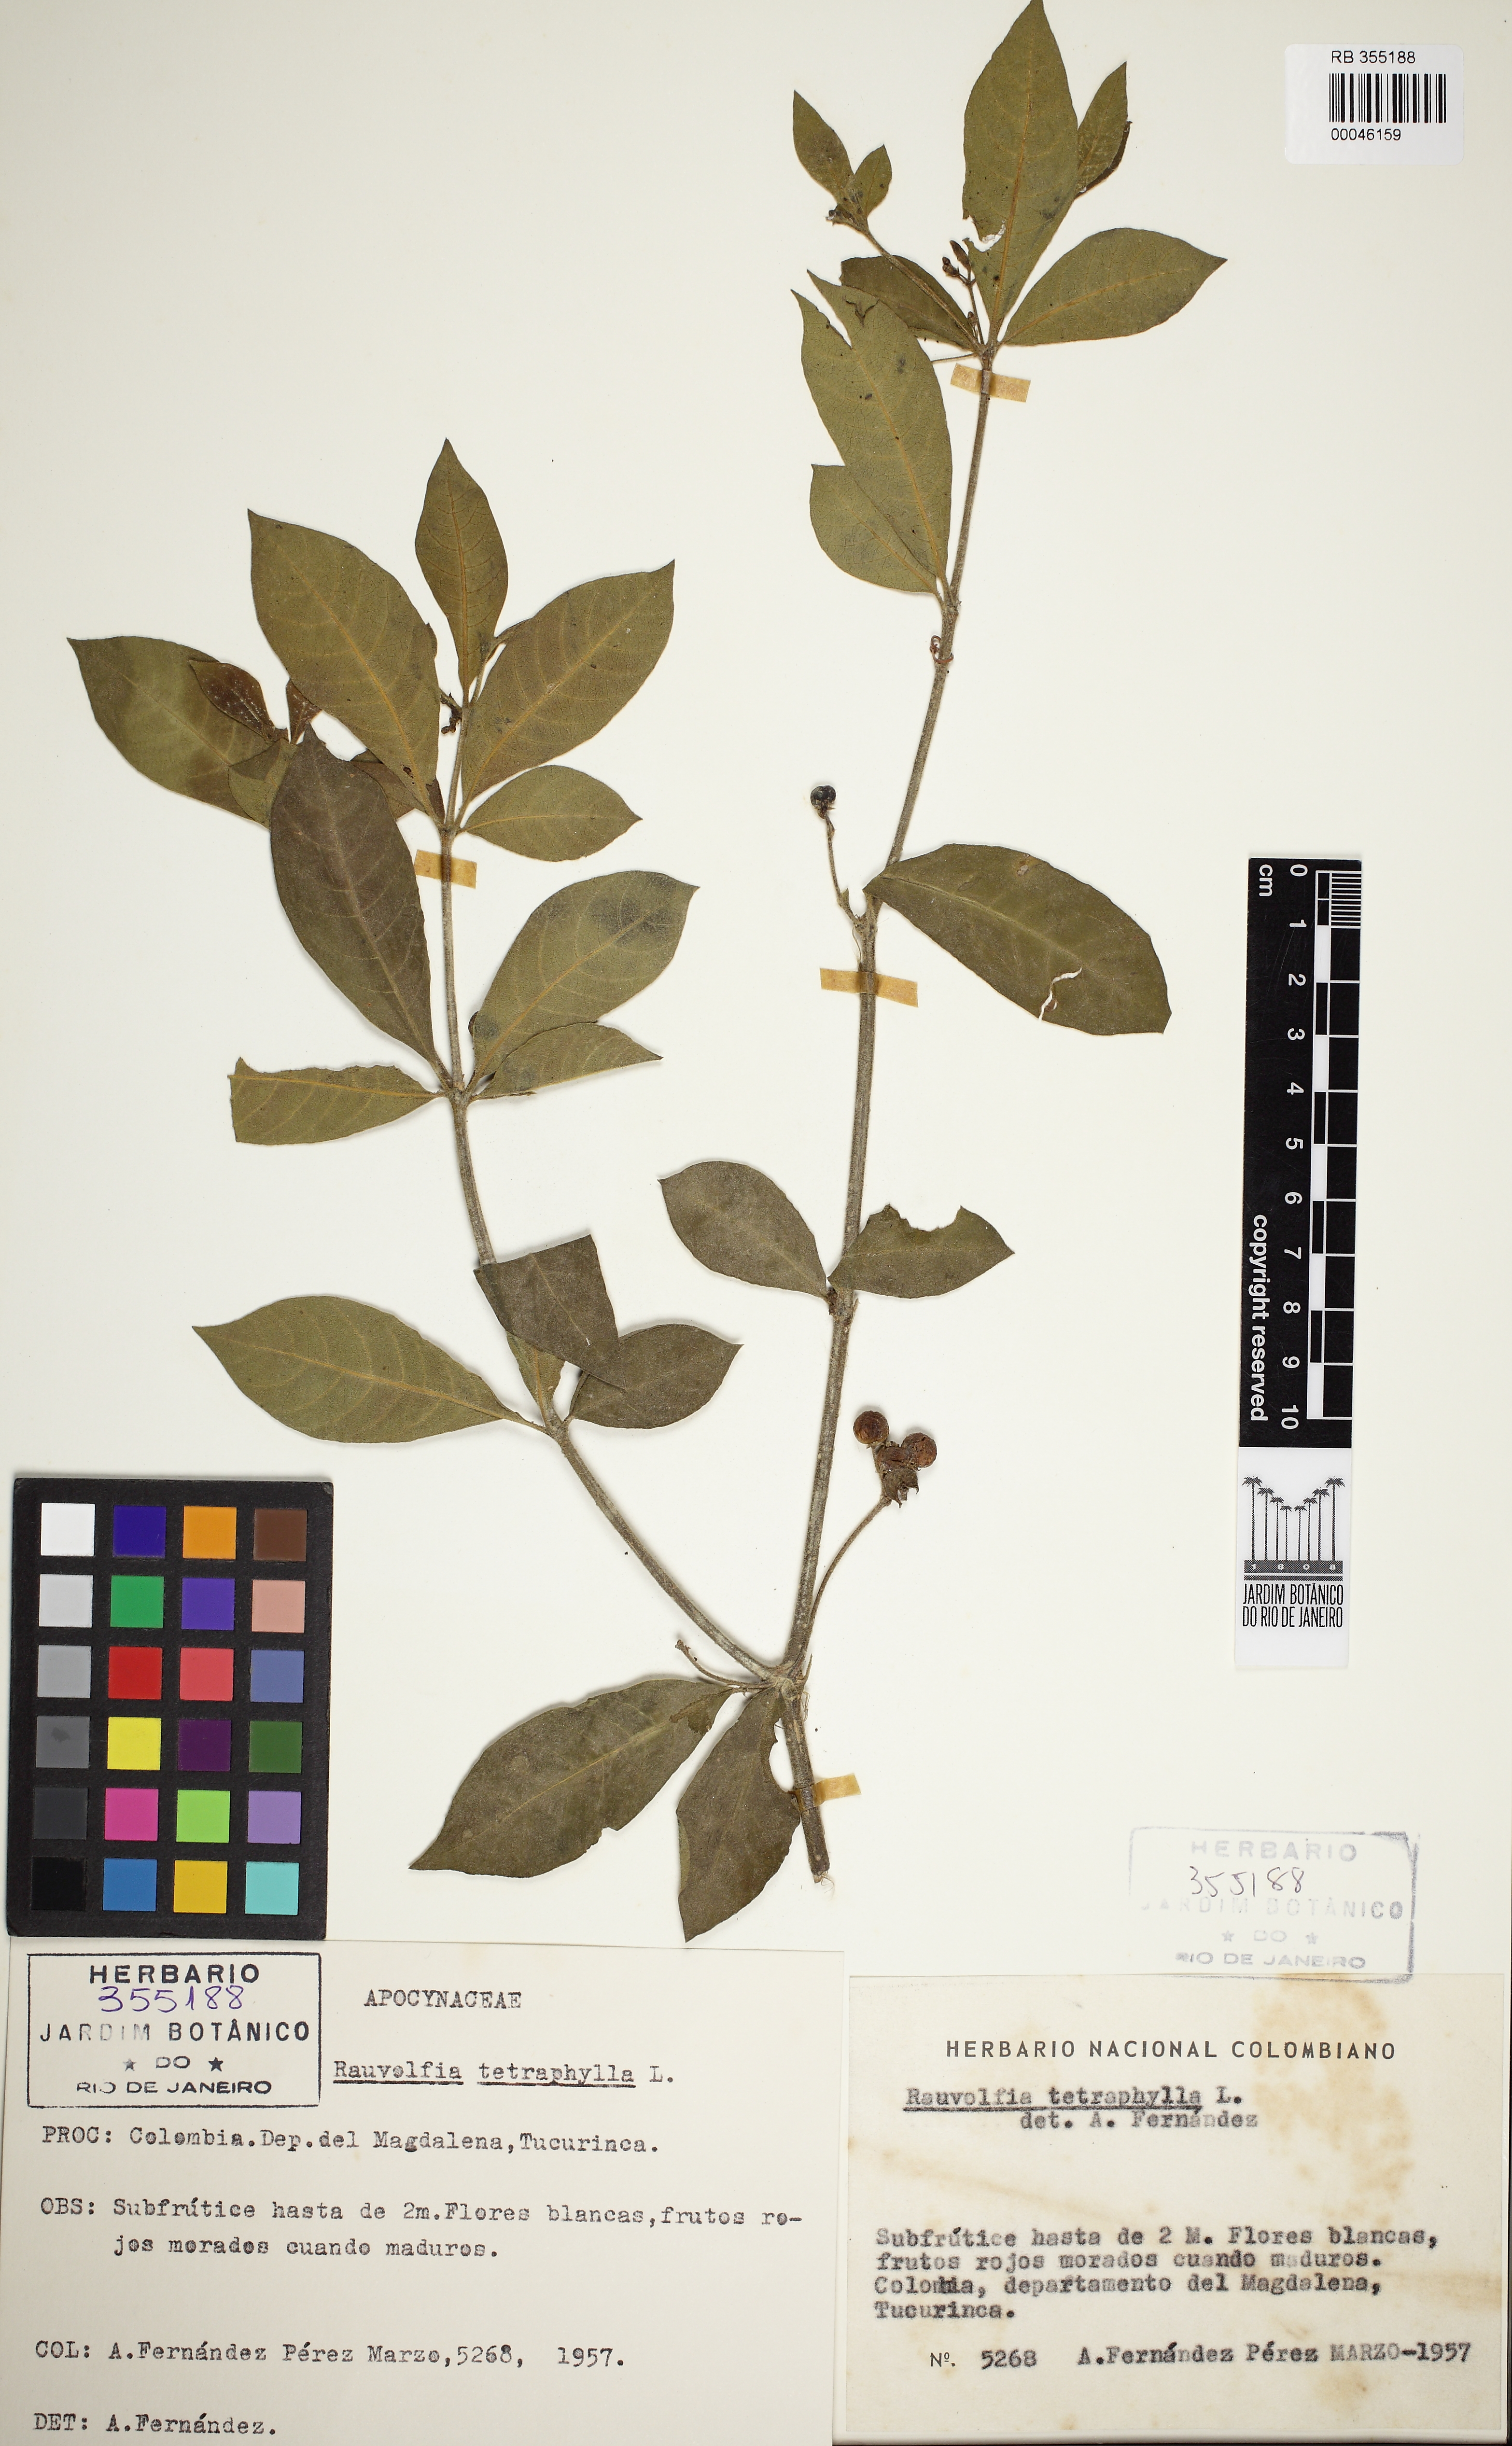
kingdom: Plantae
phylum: Tracheophyta
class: Magnoliopsida
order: Gentianales
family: Apocynaceae
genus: Rauvolfia
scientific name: Rauvolfia tetraphylla
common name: Four-leaf devil-pepper
